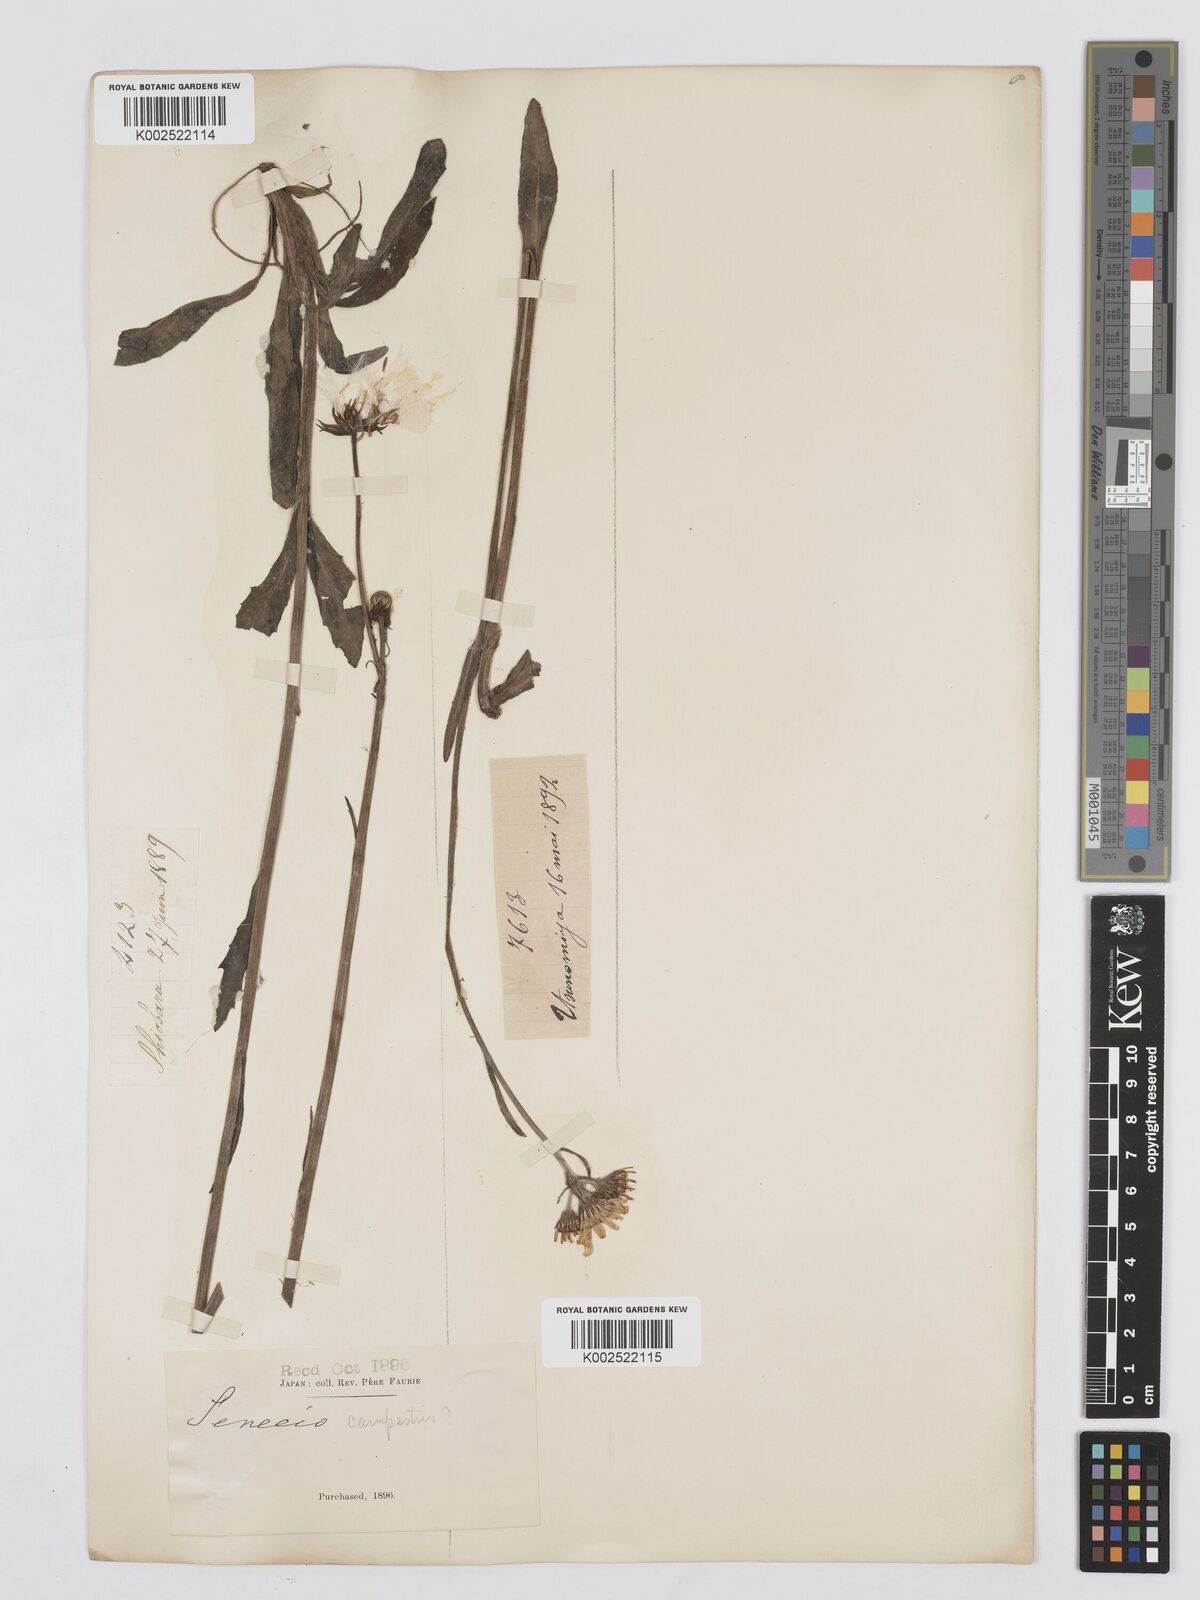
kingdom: Plantae
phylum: Tracheophyta
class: Magnoliopsida
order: Asterales
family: Asteraceae
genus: Tephroseris
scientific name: Tephroseris kirilowii
